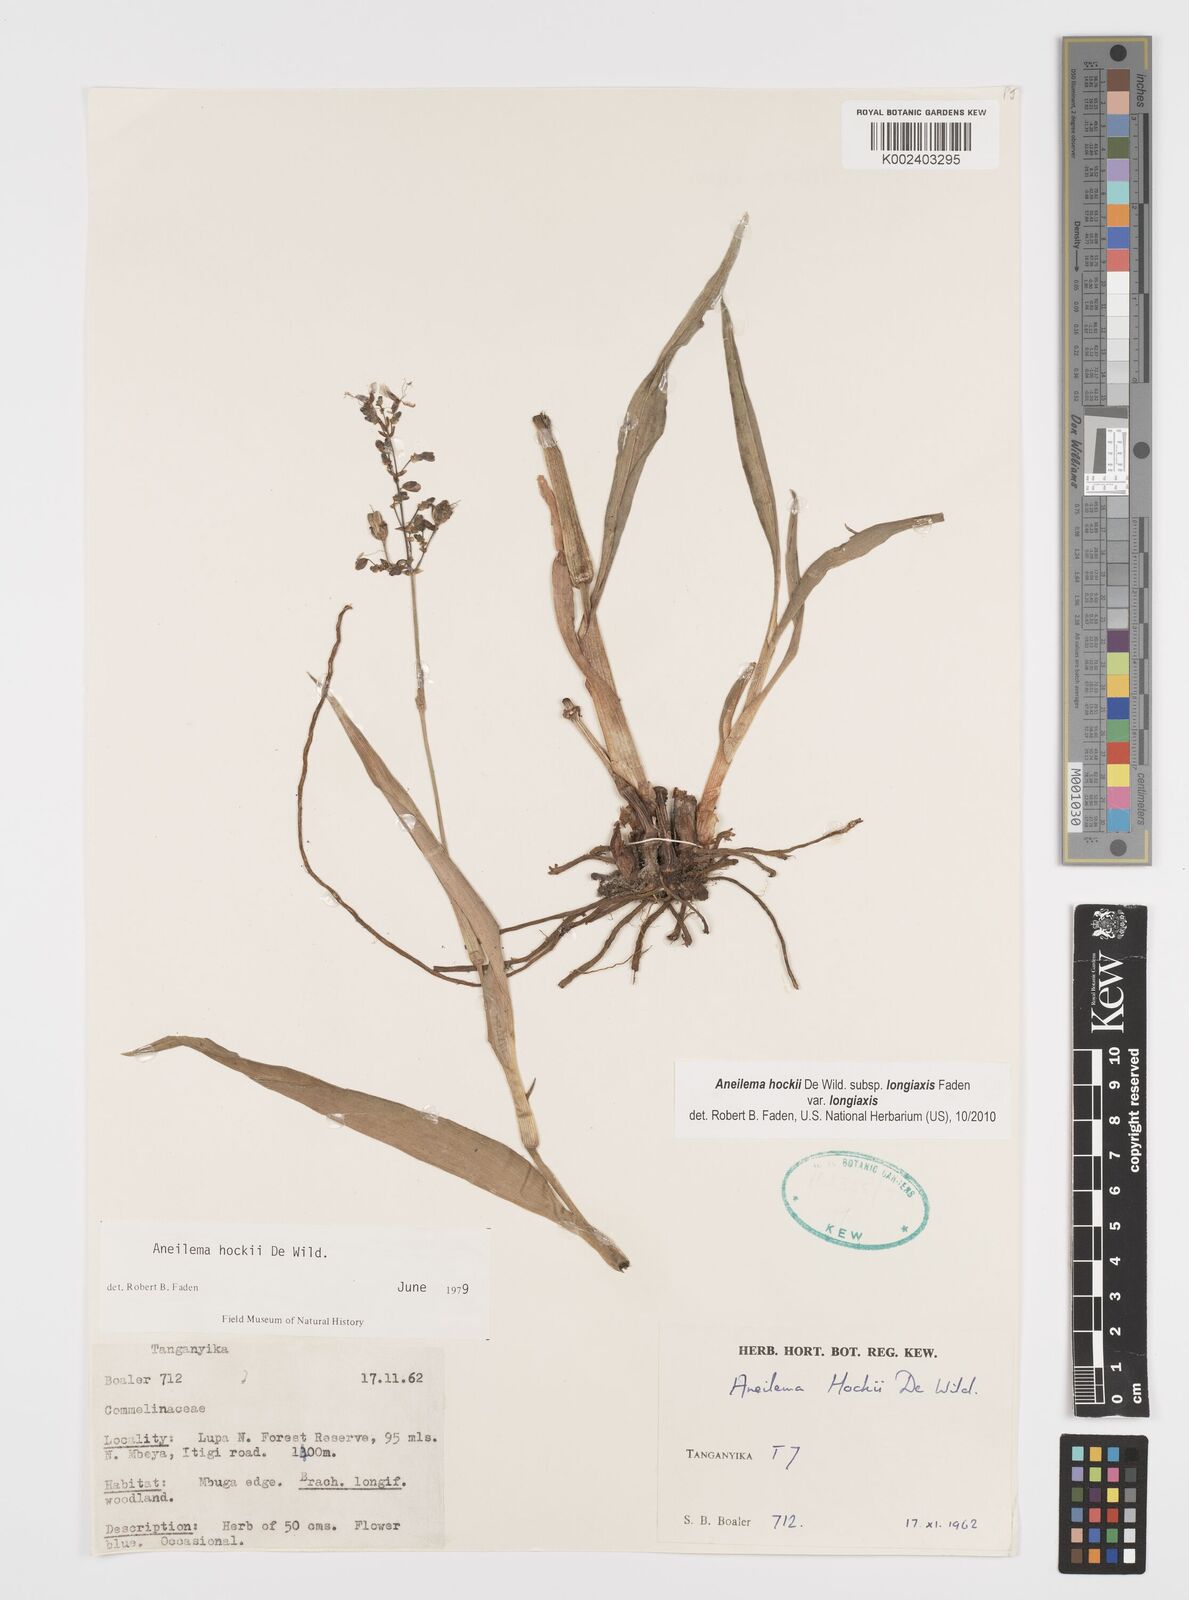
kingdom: Plantae
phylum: Tracheophyta
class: Liliopsida
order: Commelinales
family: Commelinaceae
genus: Aneilema
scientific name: Aneilema hockii
